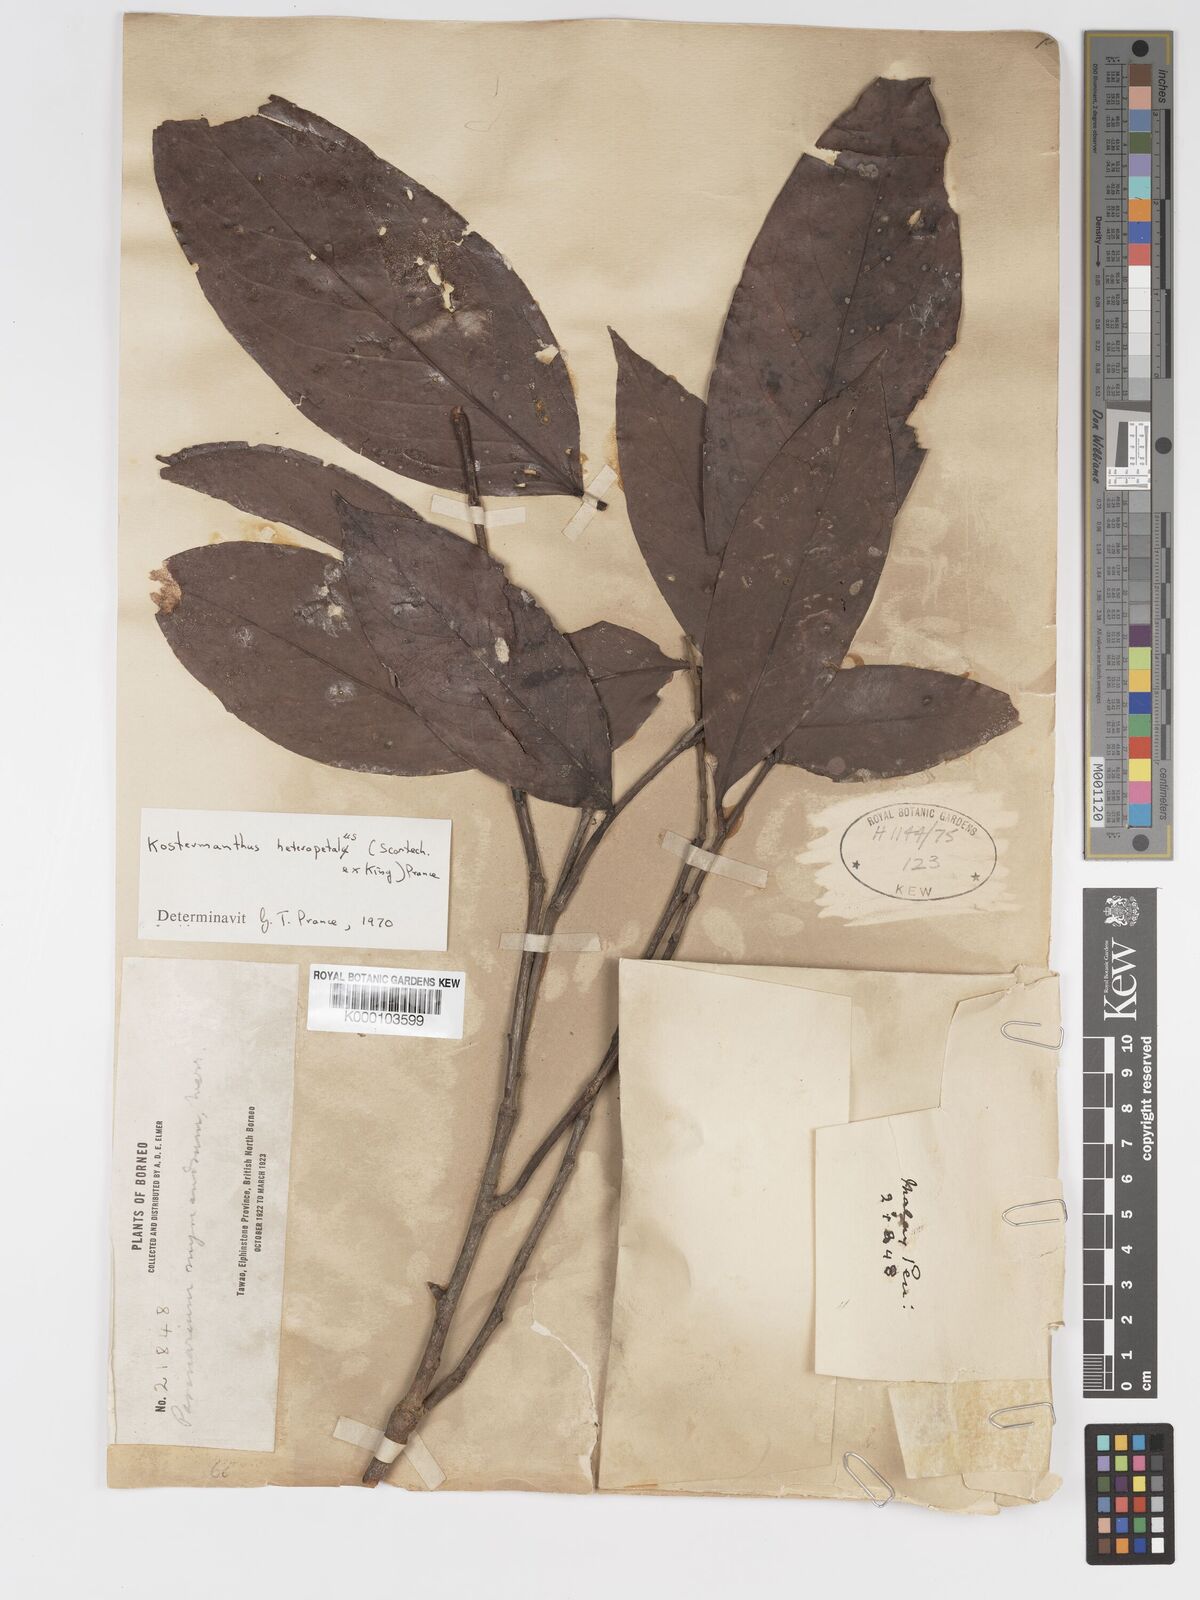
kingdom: Plantae
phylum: Tracheophyta
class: Magnoliopsida
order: Malpighiales
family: Chrysobalanaceae
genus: Kostermanthus
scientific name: Kostermanthus heteropetalus
